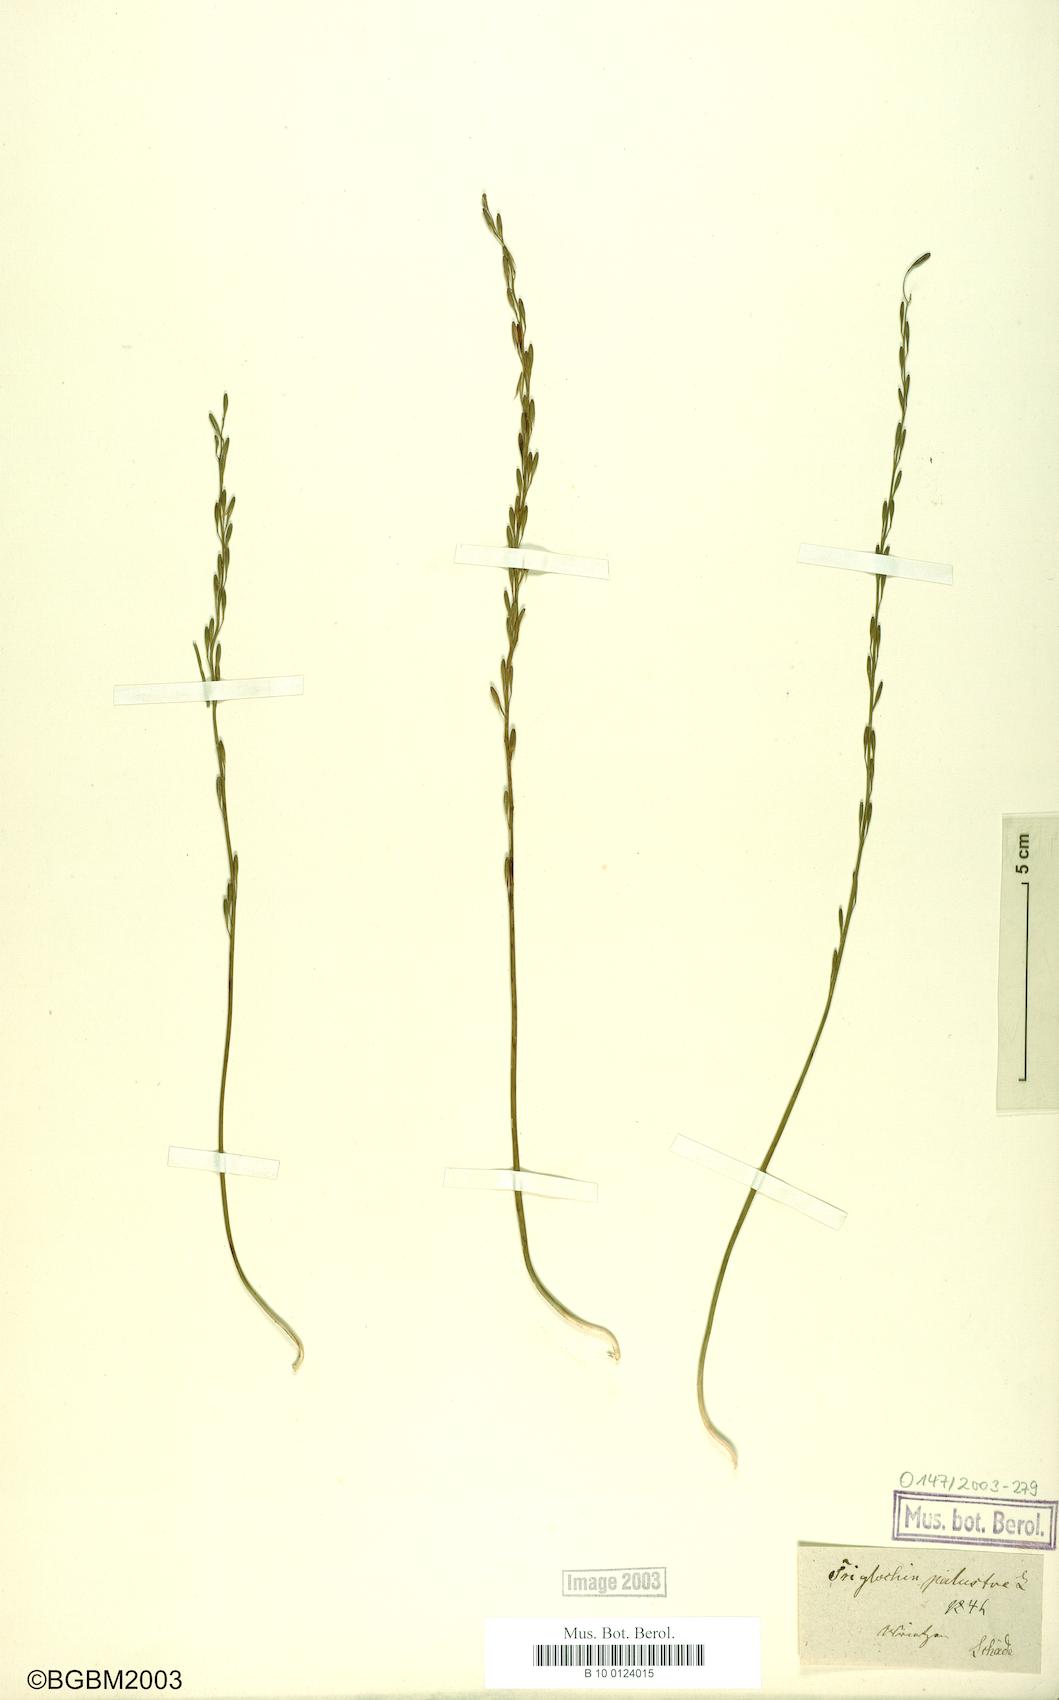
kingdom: Plantae
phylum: Tracheophyta
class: Liliopsida
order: Alismatales
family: Juncaginaceae
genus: Triglochin
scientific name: Triglochin palustris
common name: Marsh arrowgrass
